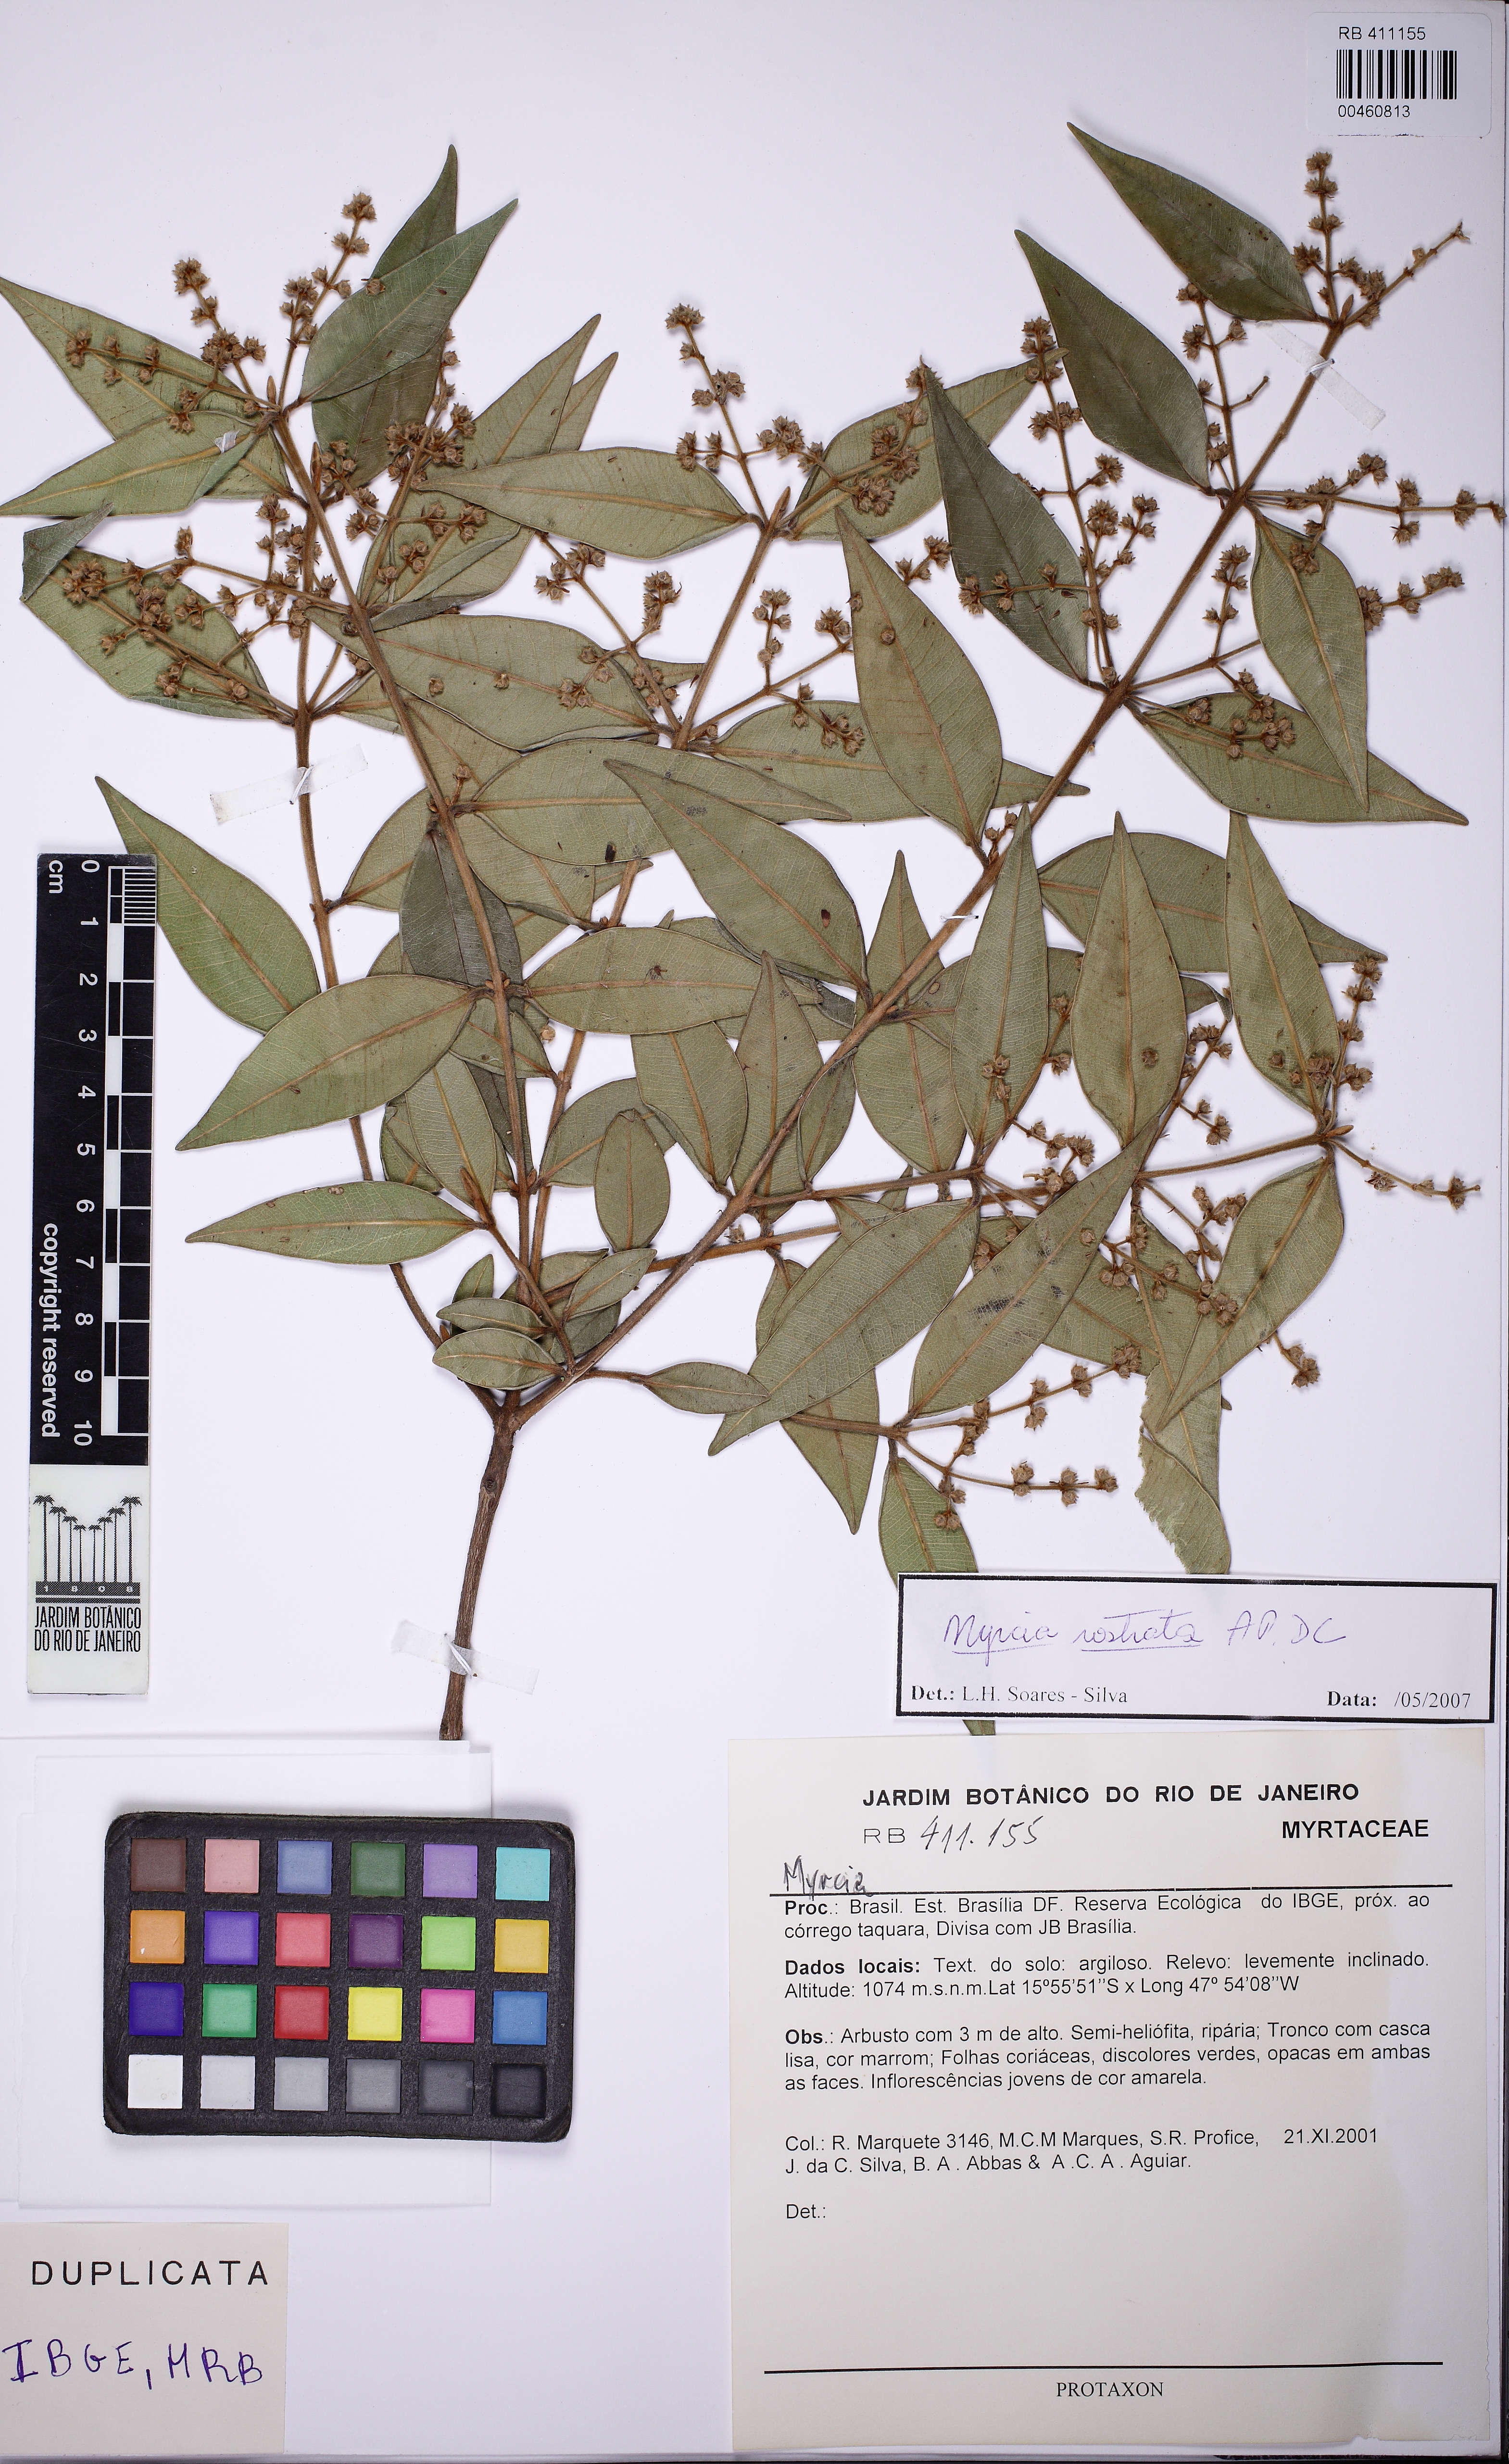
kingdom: Plantae
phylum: Tracheophyta
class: Magnoliopsida
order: Myrtales
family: Myrtaceae
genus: Myrcia
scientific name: Myrcia splendens
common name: Surinam cherry
